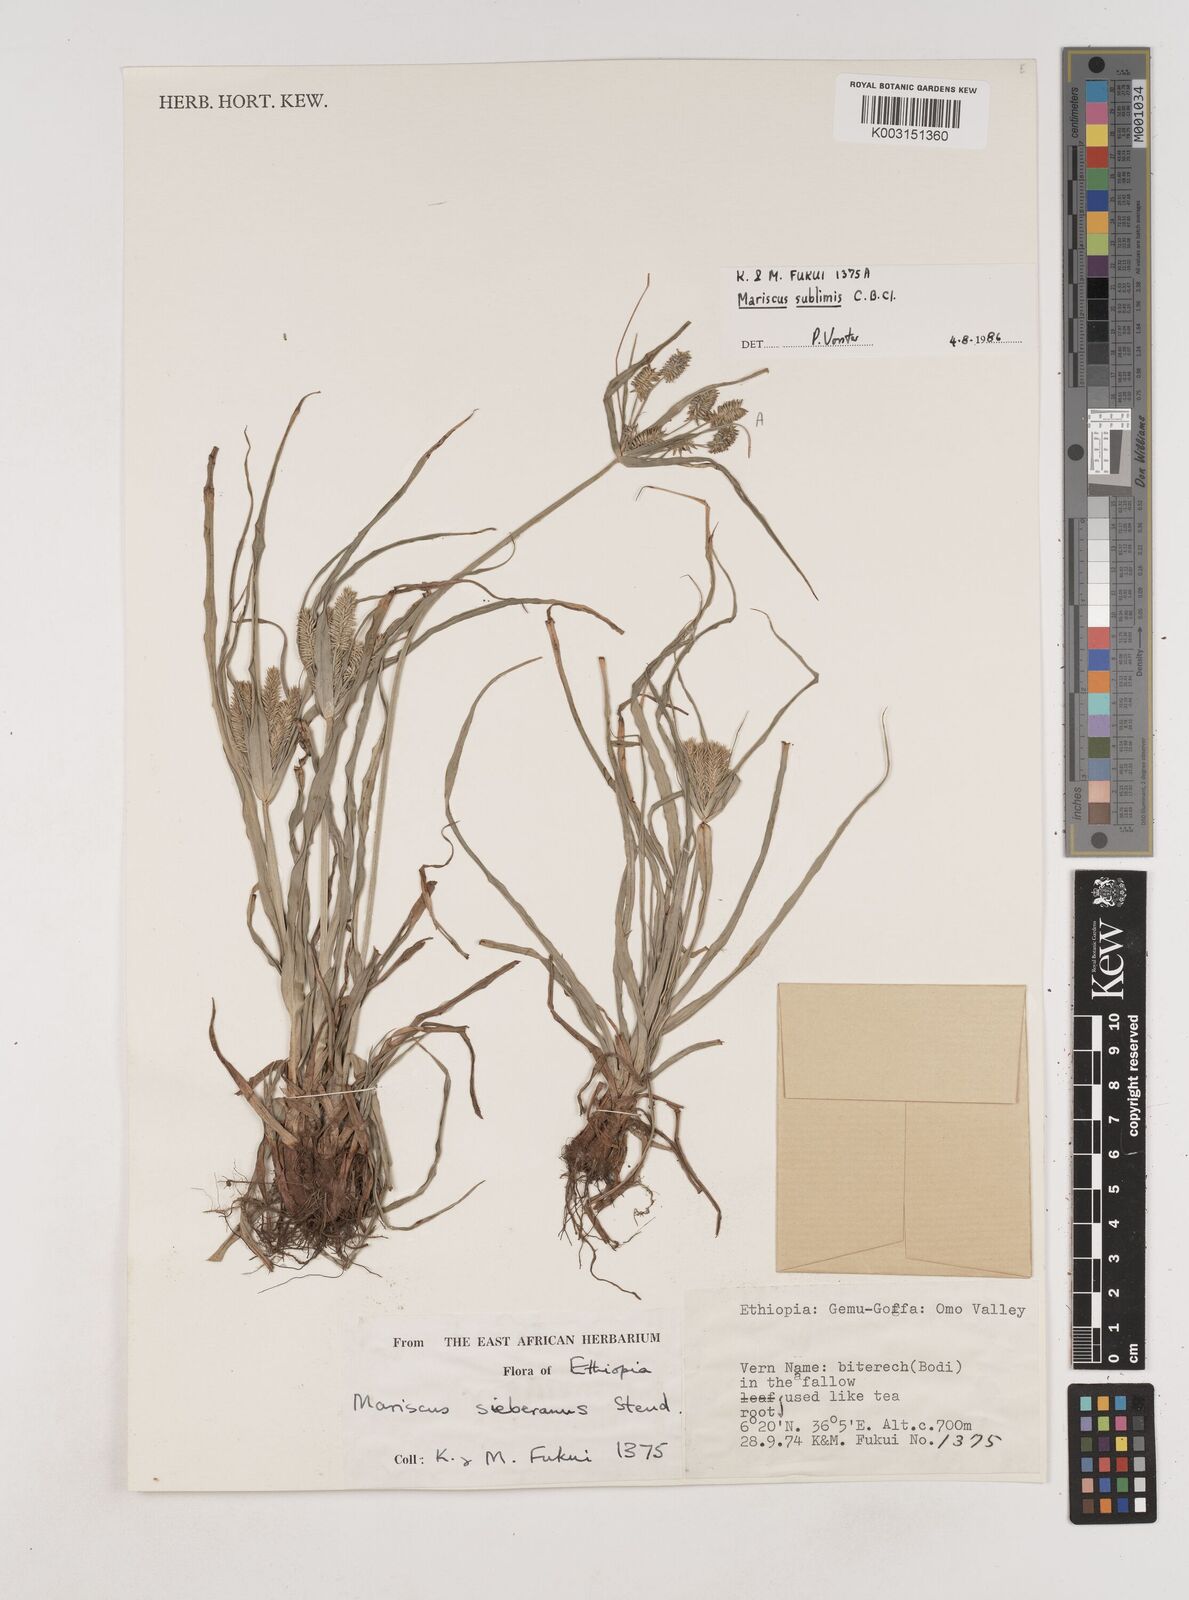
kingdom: Plantae
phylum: Tracheophyta
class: Liliopsida
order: Poales
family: Cyperaceae
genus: Cyperus
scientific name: Cyperus cyperoides
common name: Pacific island flat sedge
